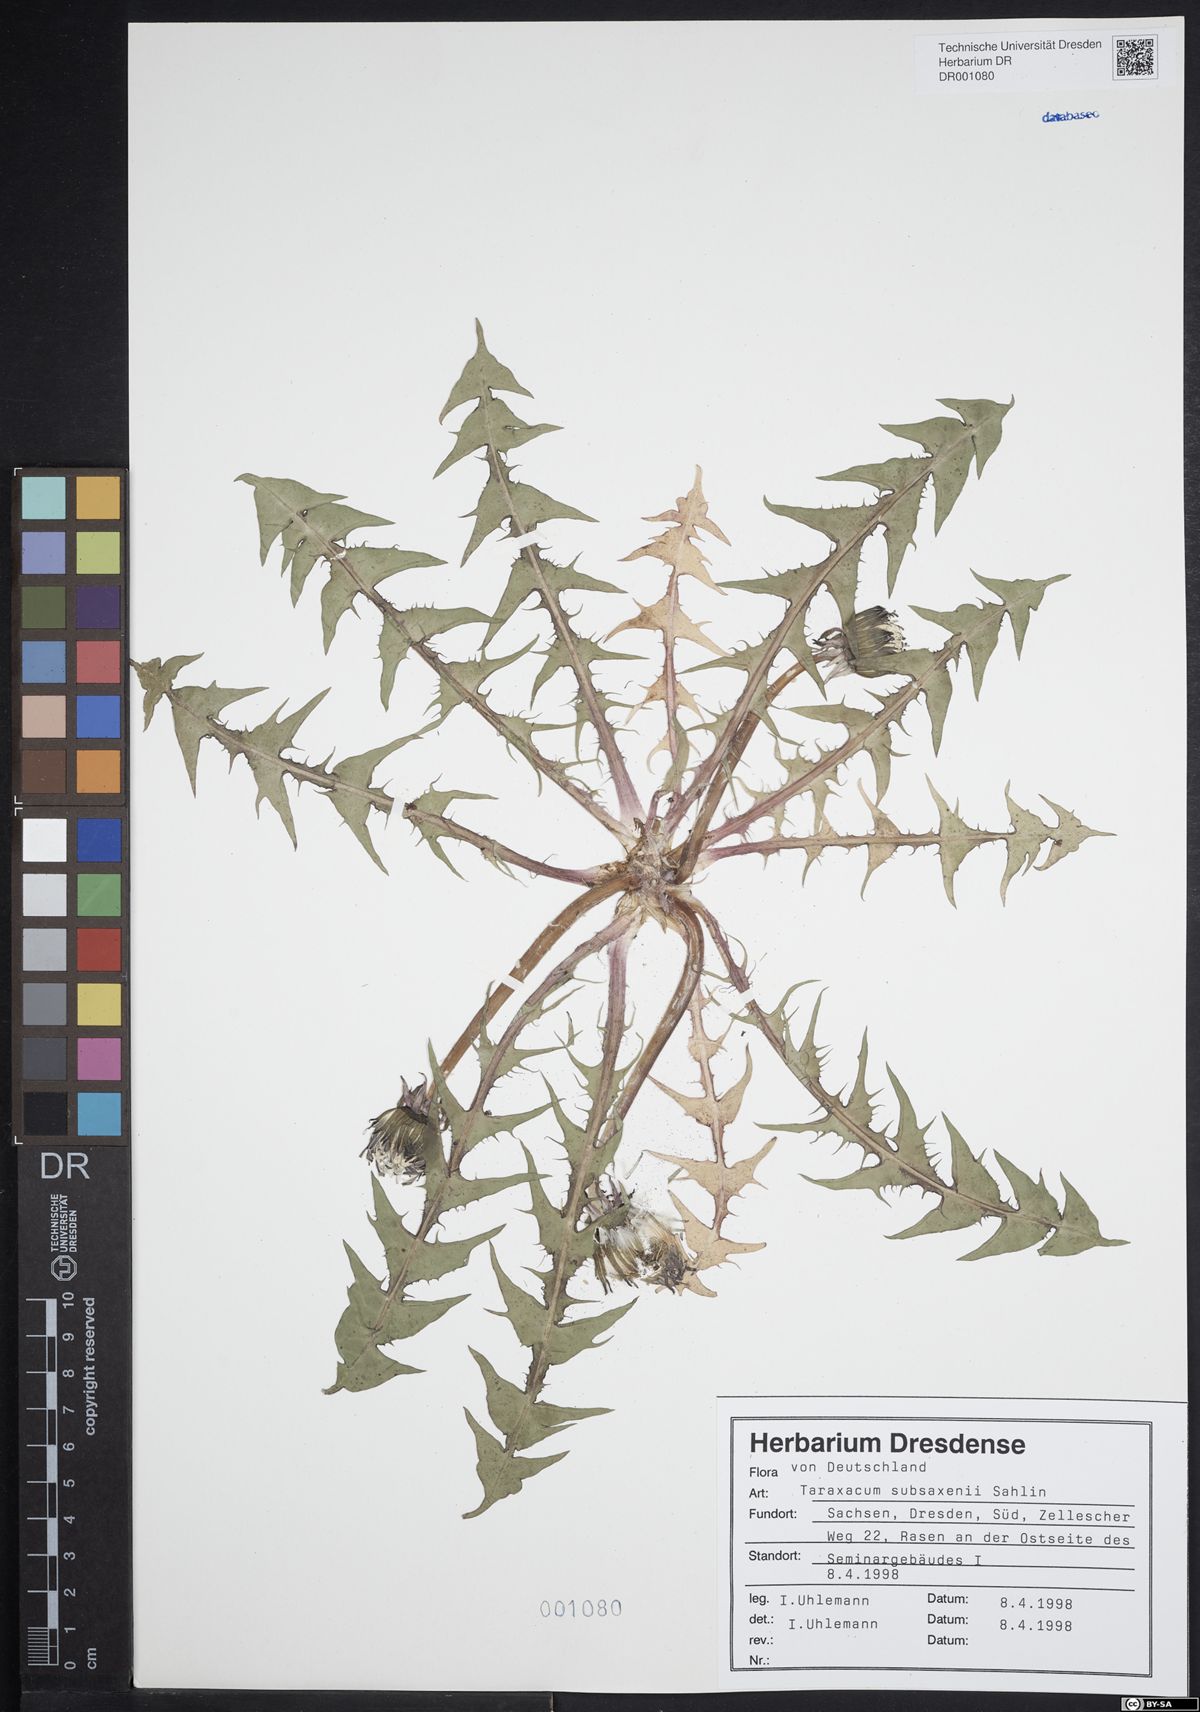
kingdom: Plantae
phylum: Tracheophyta
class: Magnoliopsida
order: Asterales
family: Asteraceae
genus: Taraxacum
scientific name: Taraxacum subsaxenii
